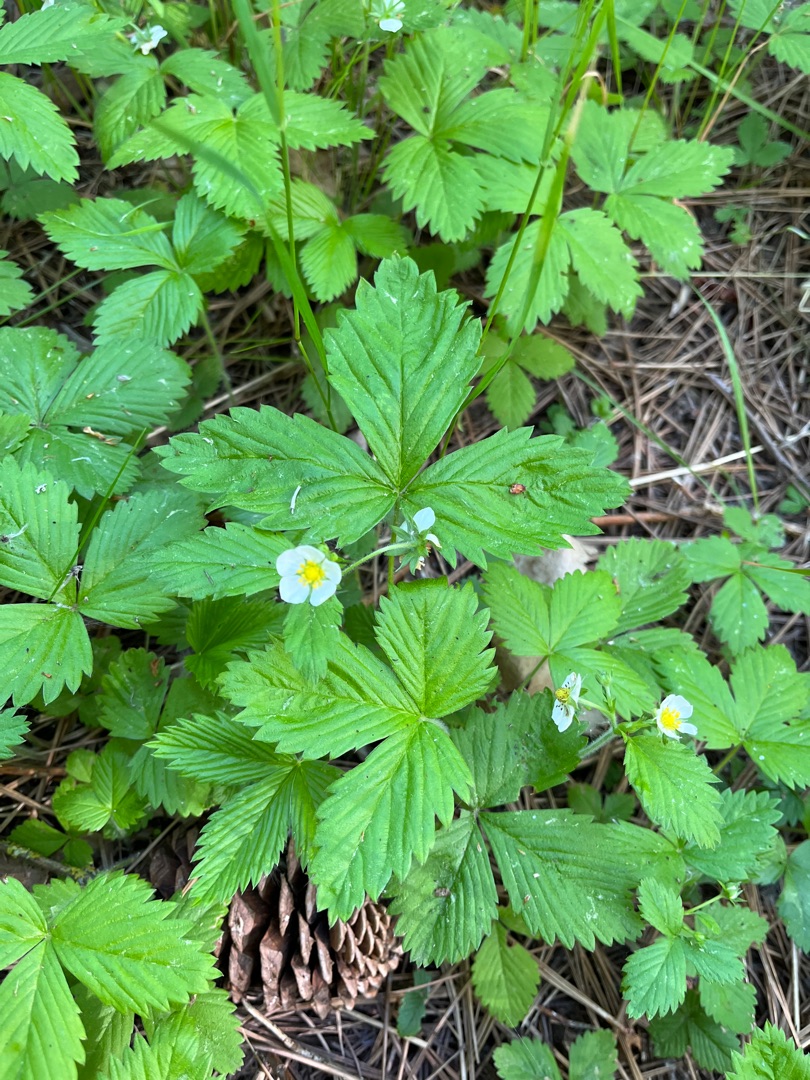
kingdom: Plantae
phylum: Tracheophyta
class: Magnoliopsida
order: Rosales
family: Rosaceae
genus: Fragaria
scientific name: Fragaria vesca
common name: Skov-jordbær
